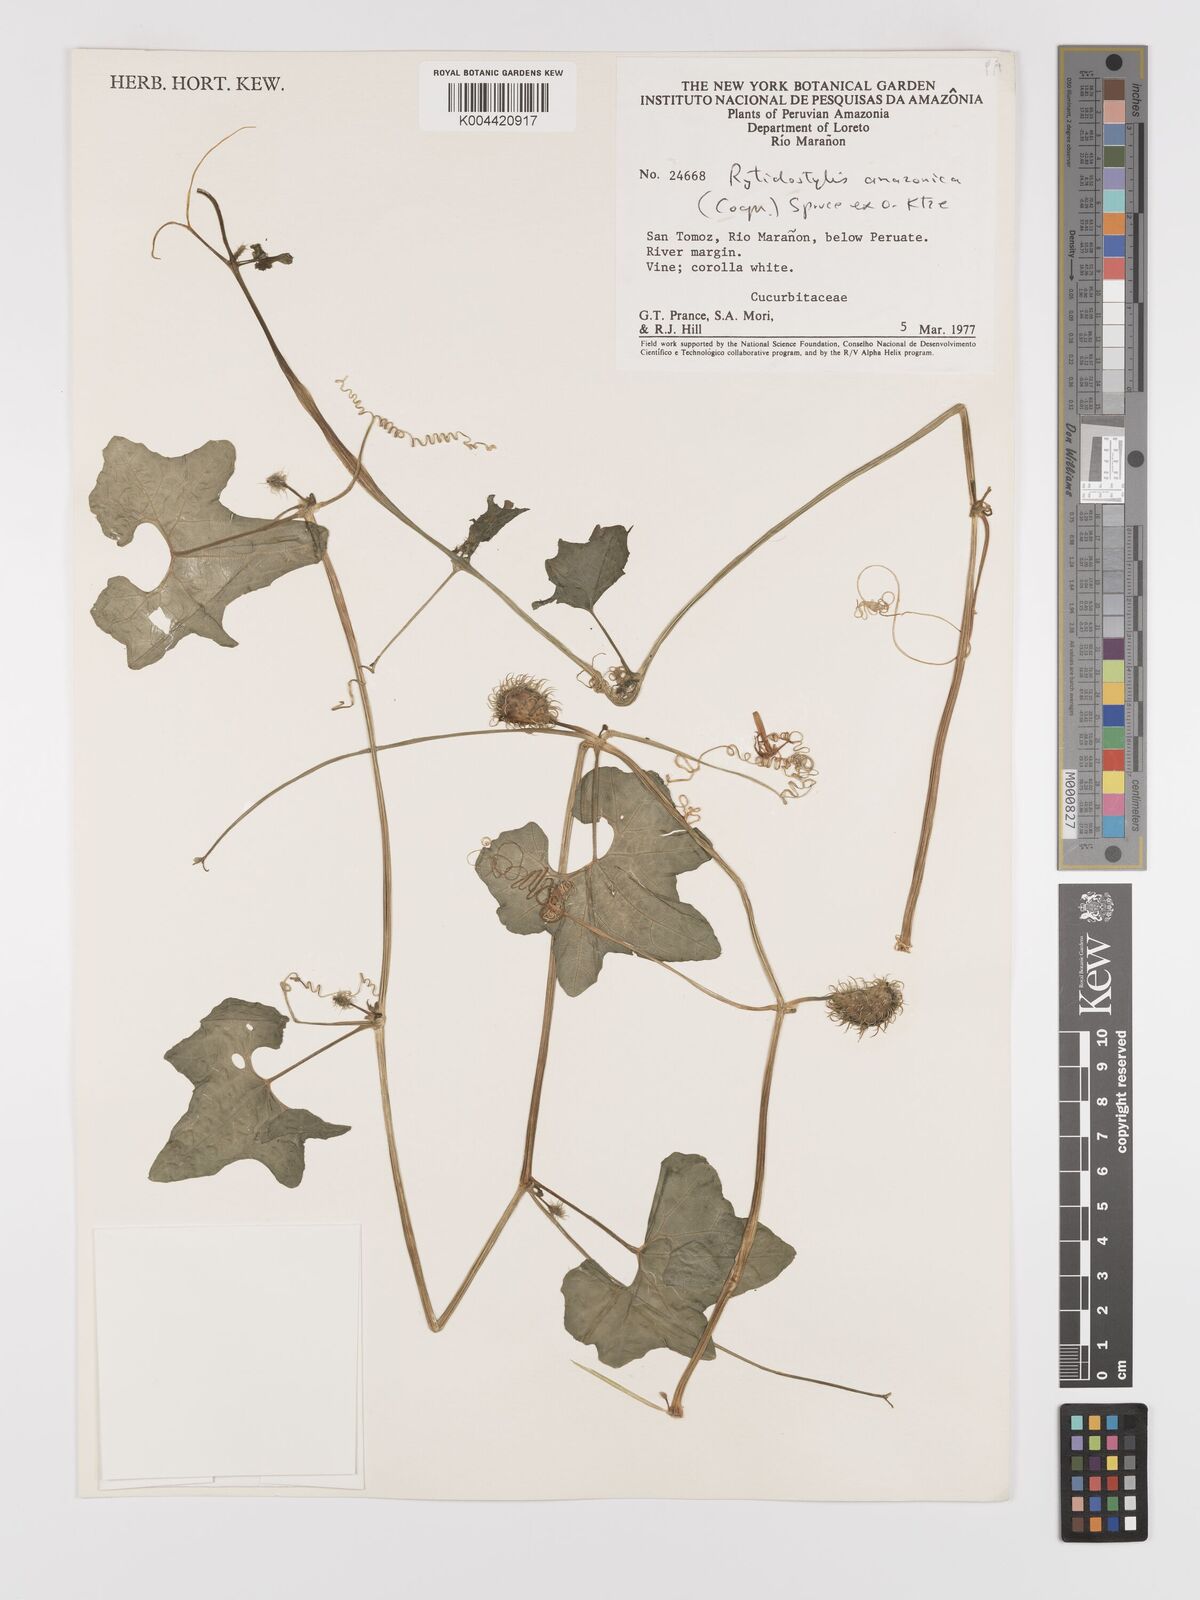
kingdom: Plantae
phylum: Tracheophyta
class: Magnoliopsida
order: Cucurbitales
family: Cucurbitaceae
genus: Cyclanthera
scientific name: Cyclanthera carthagenensis
